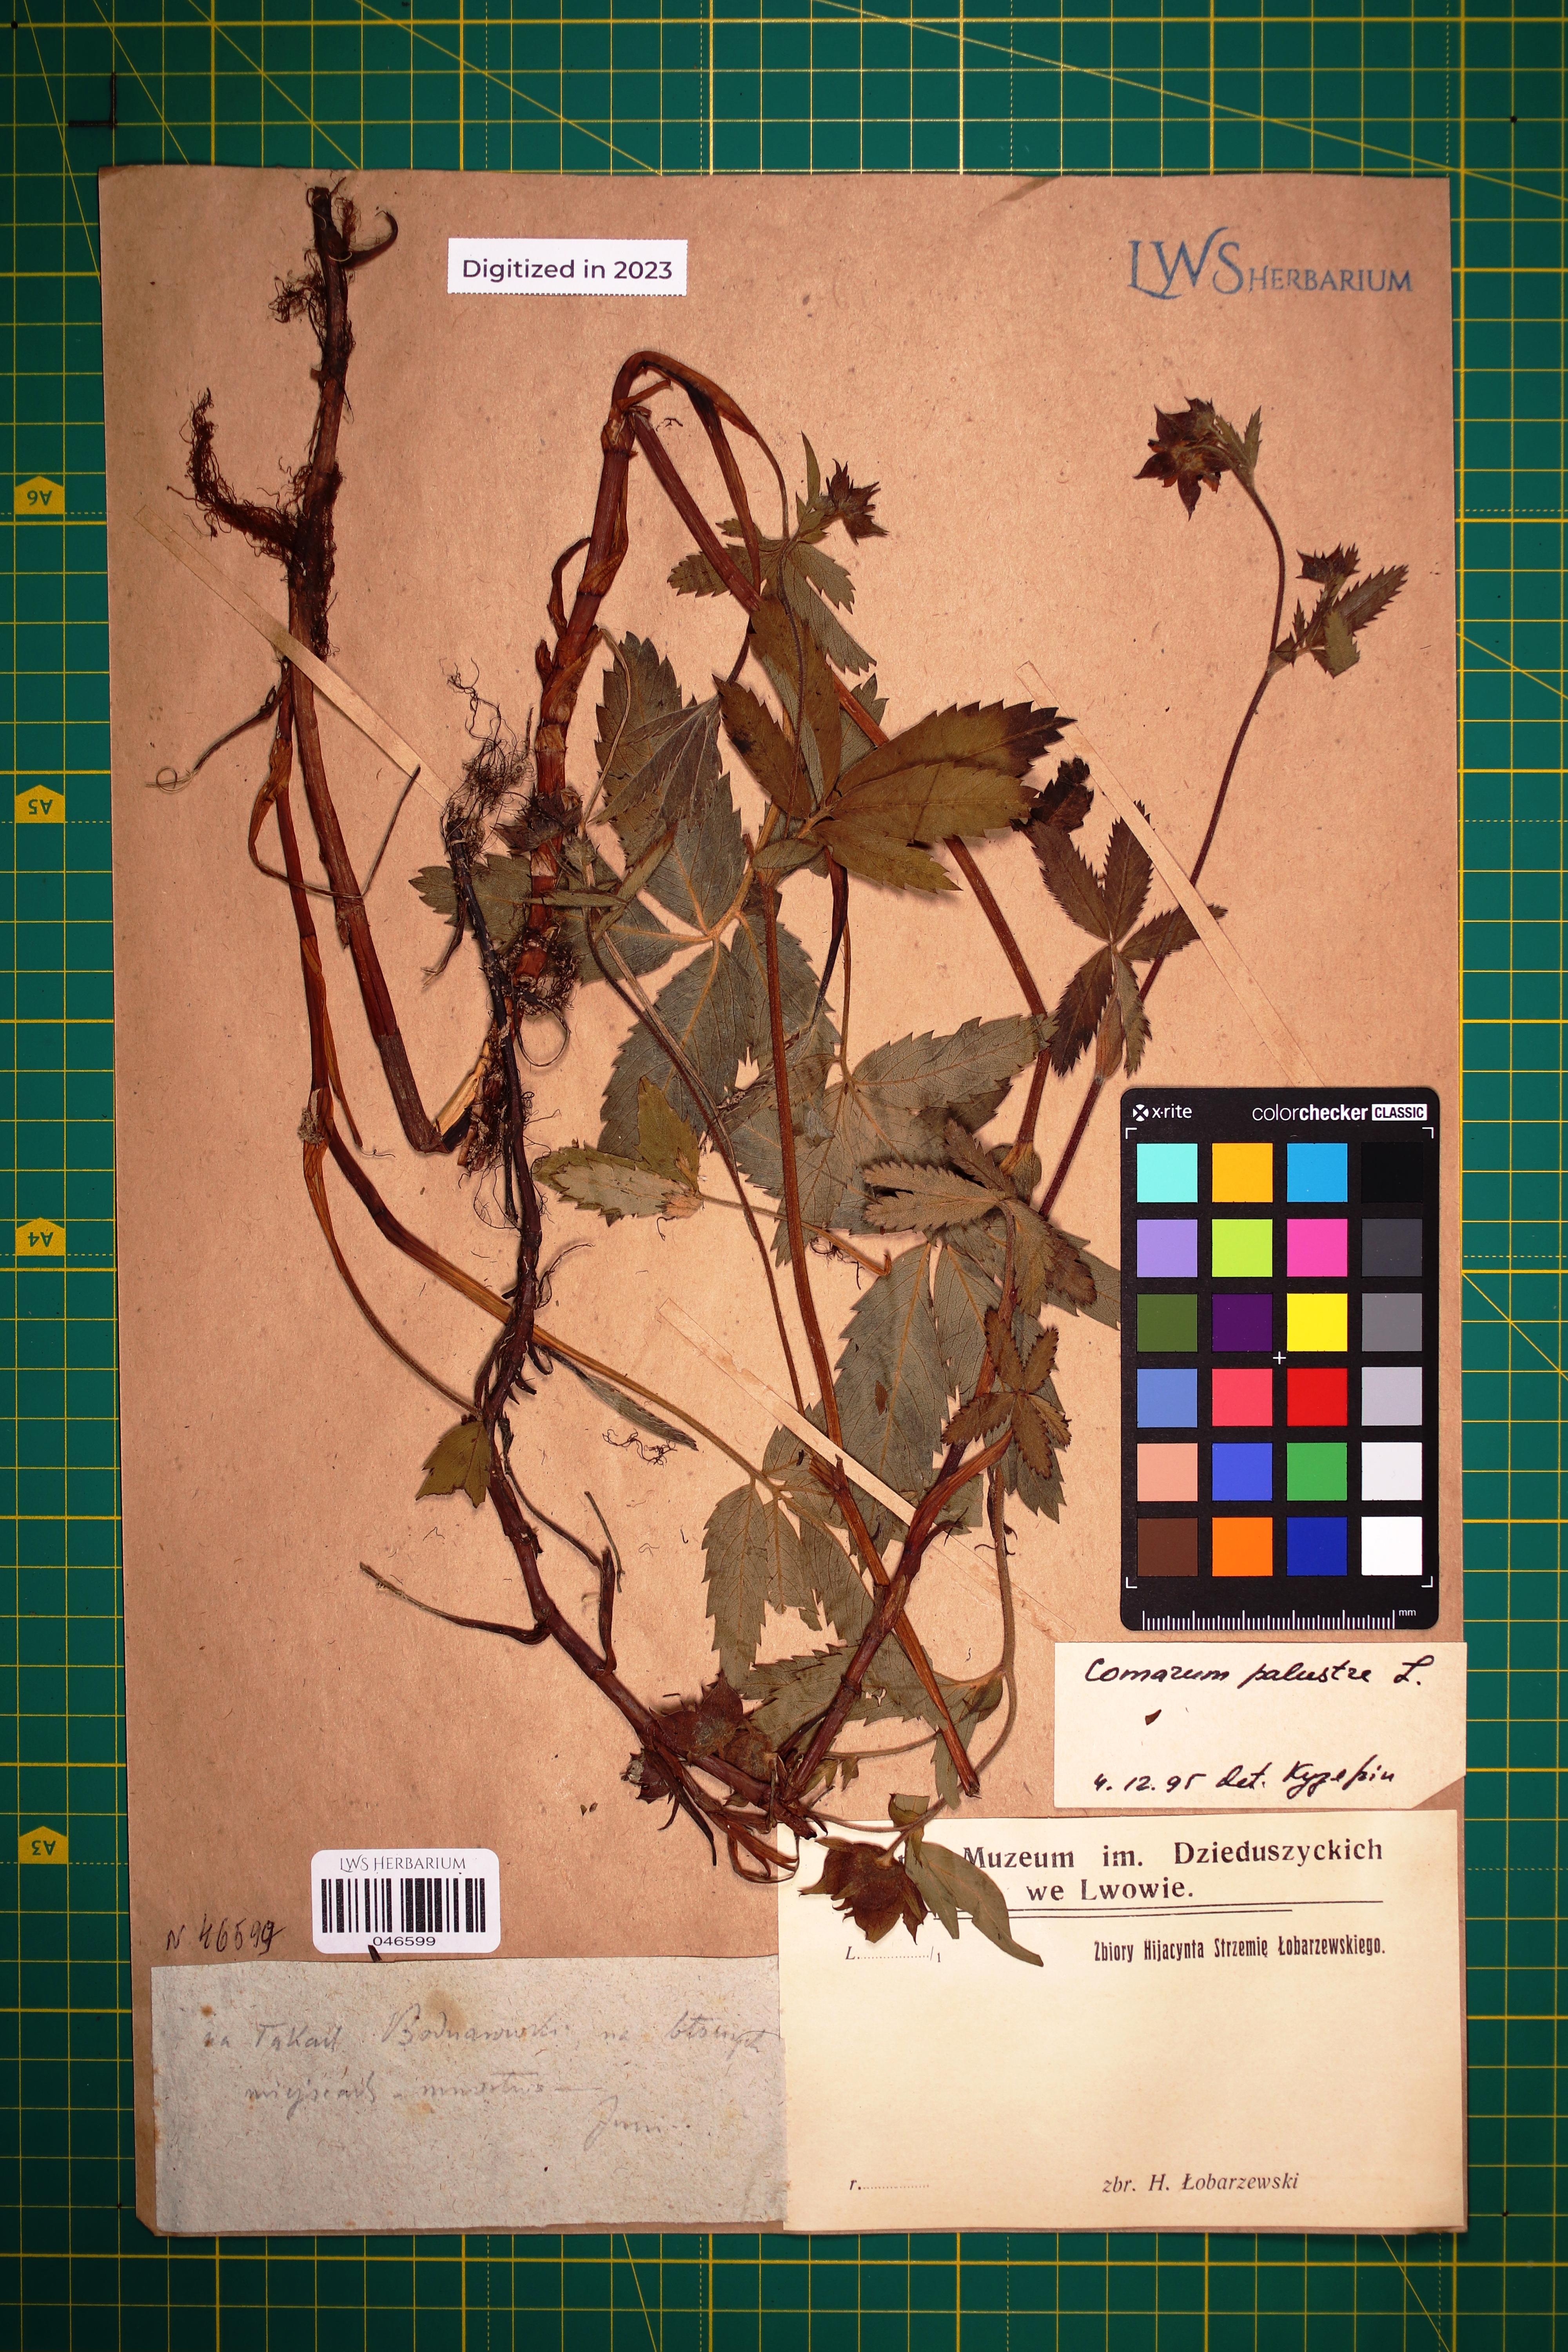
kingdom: Plantae
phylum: Tracheophyta
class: Magnoliopsida
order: Rosales
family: Rosaceae
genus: Comarum
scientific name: Comarum palustre
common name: Marsh cinquefoil
